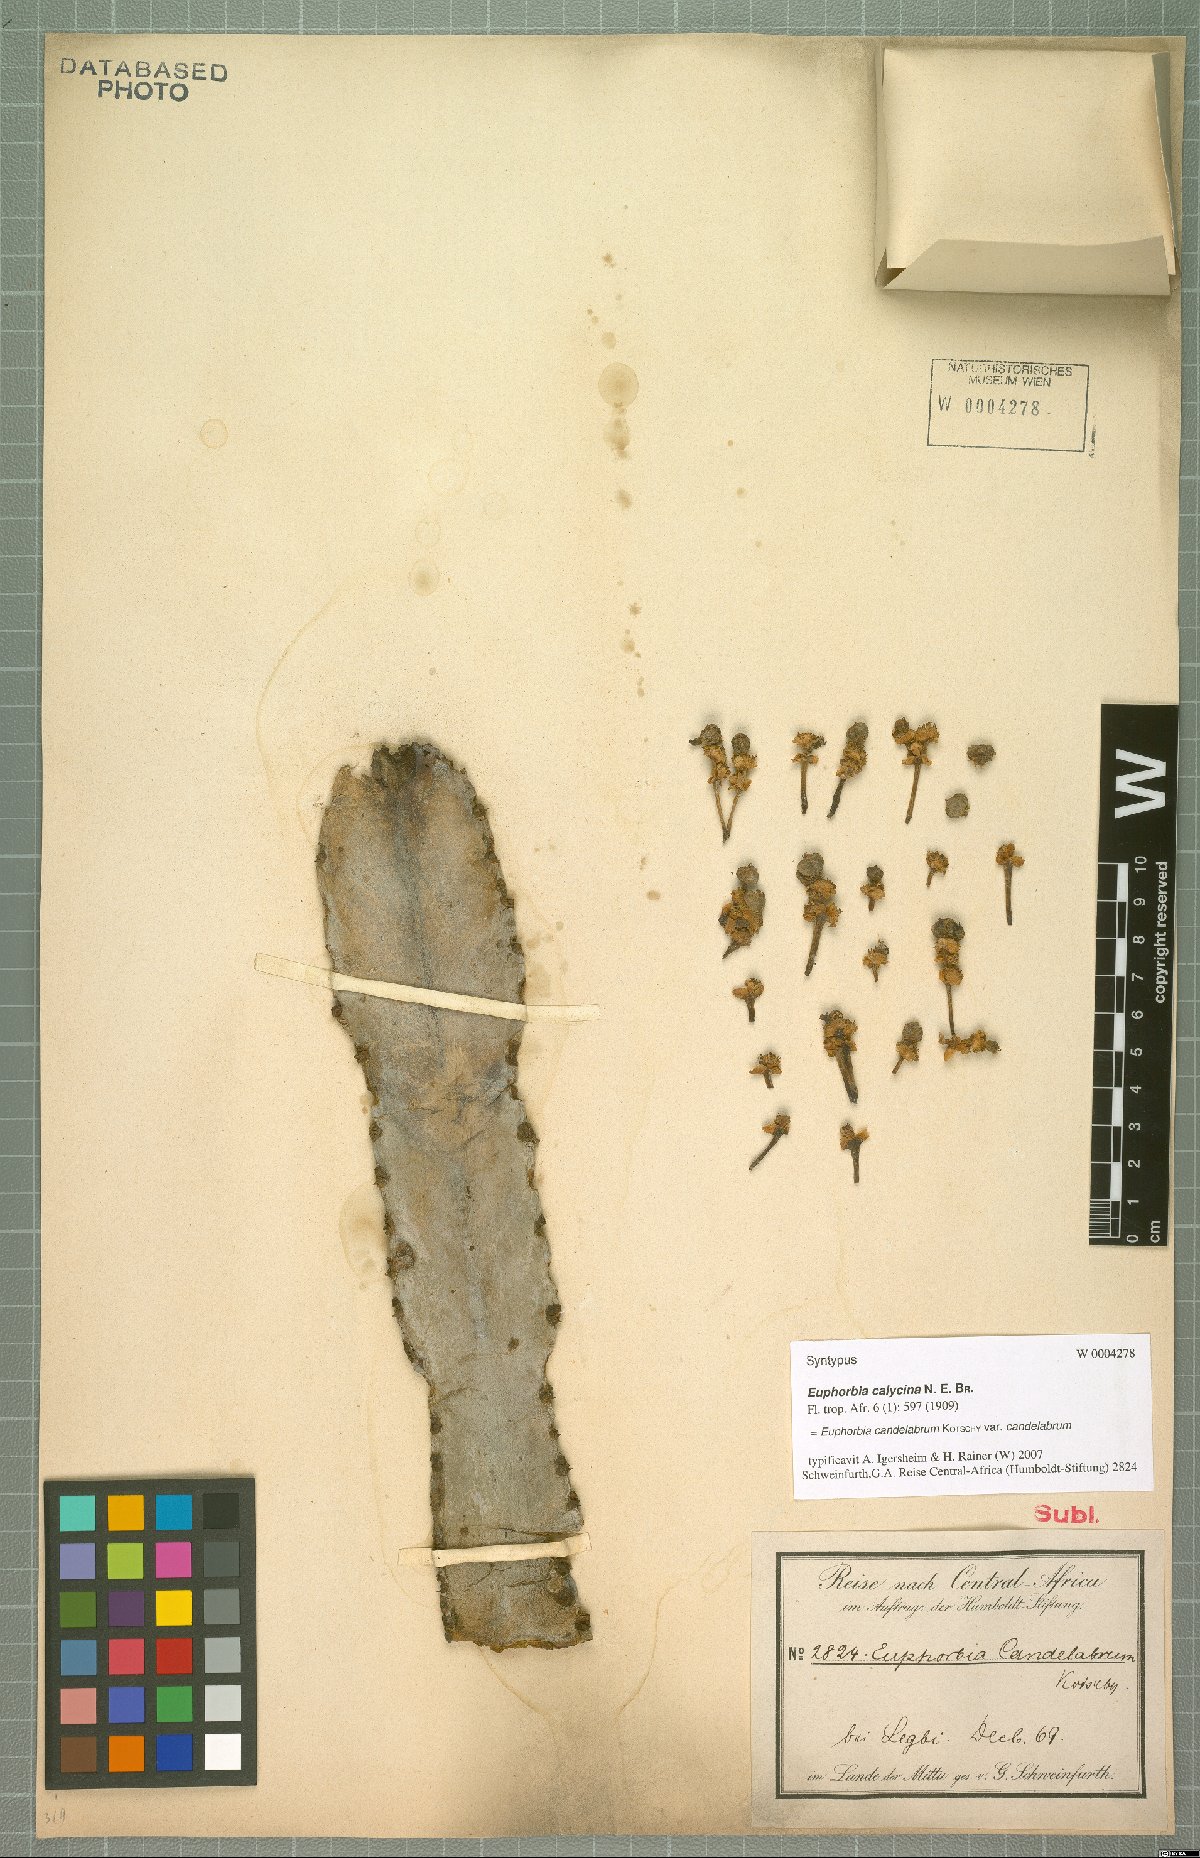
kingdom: Plantae
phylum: Tracheophyta
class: Magnoliopsida
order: Malpighiales
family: Euphorbiaceae
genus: Euphorbia
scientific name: Euphorbia murielii
